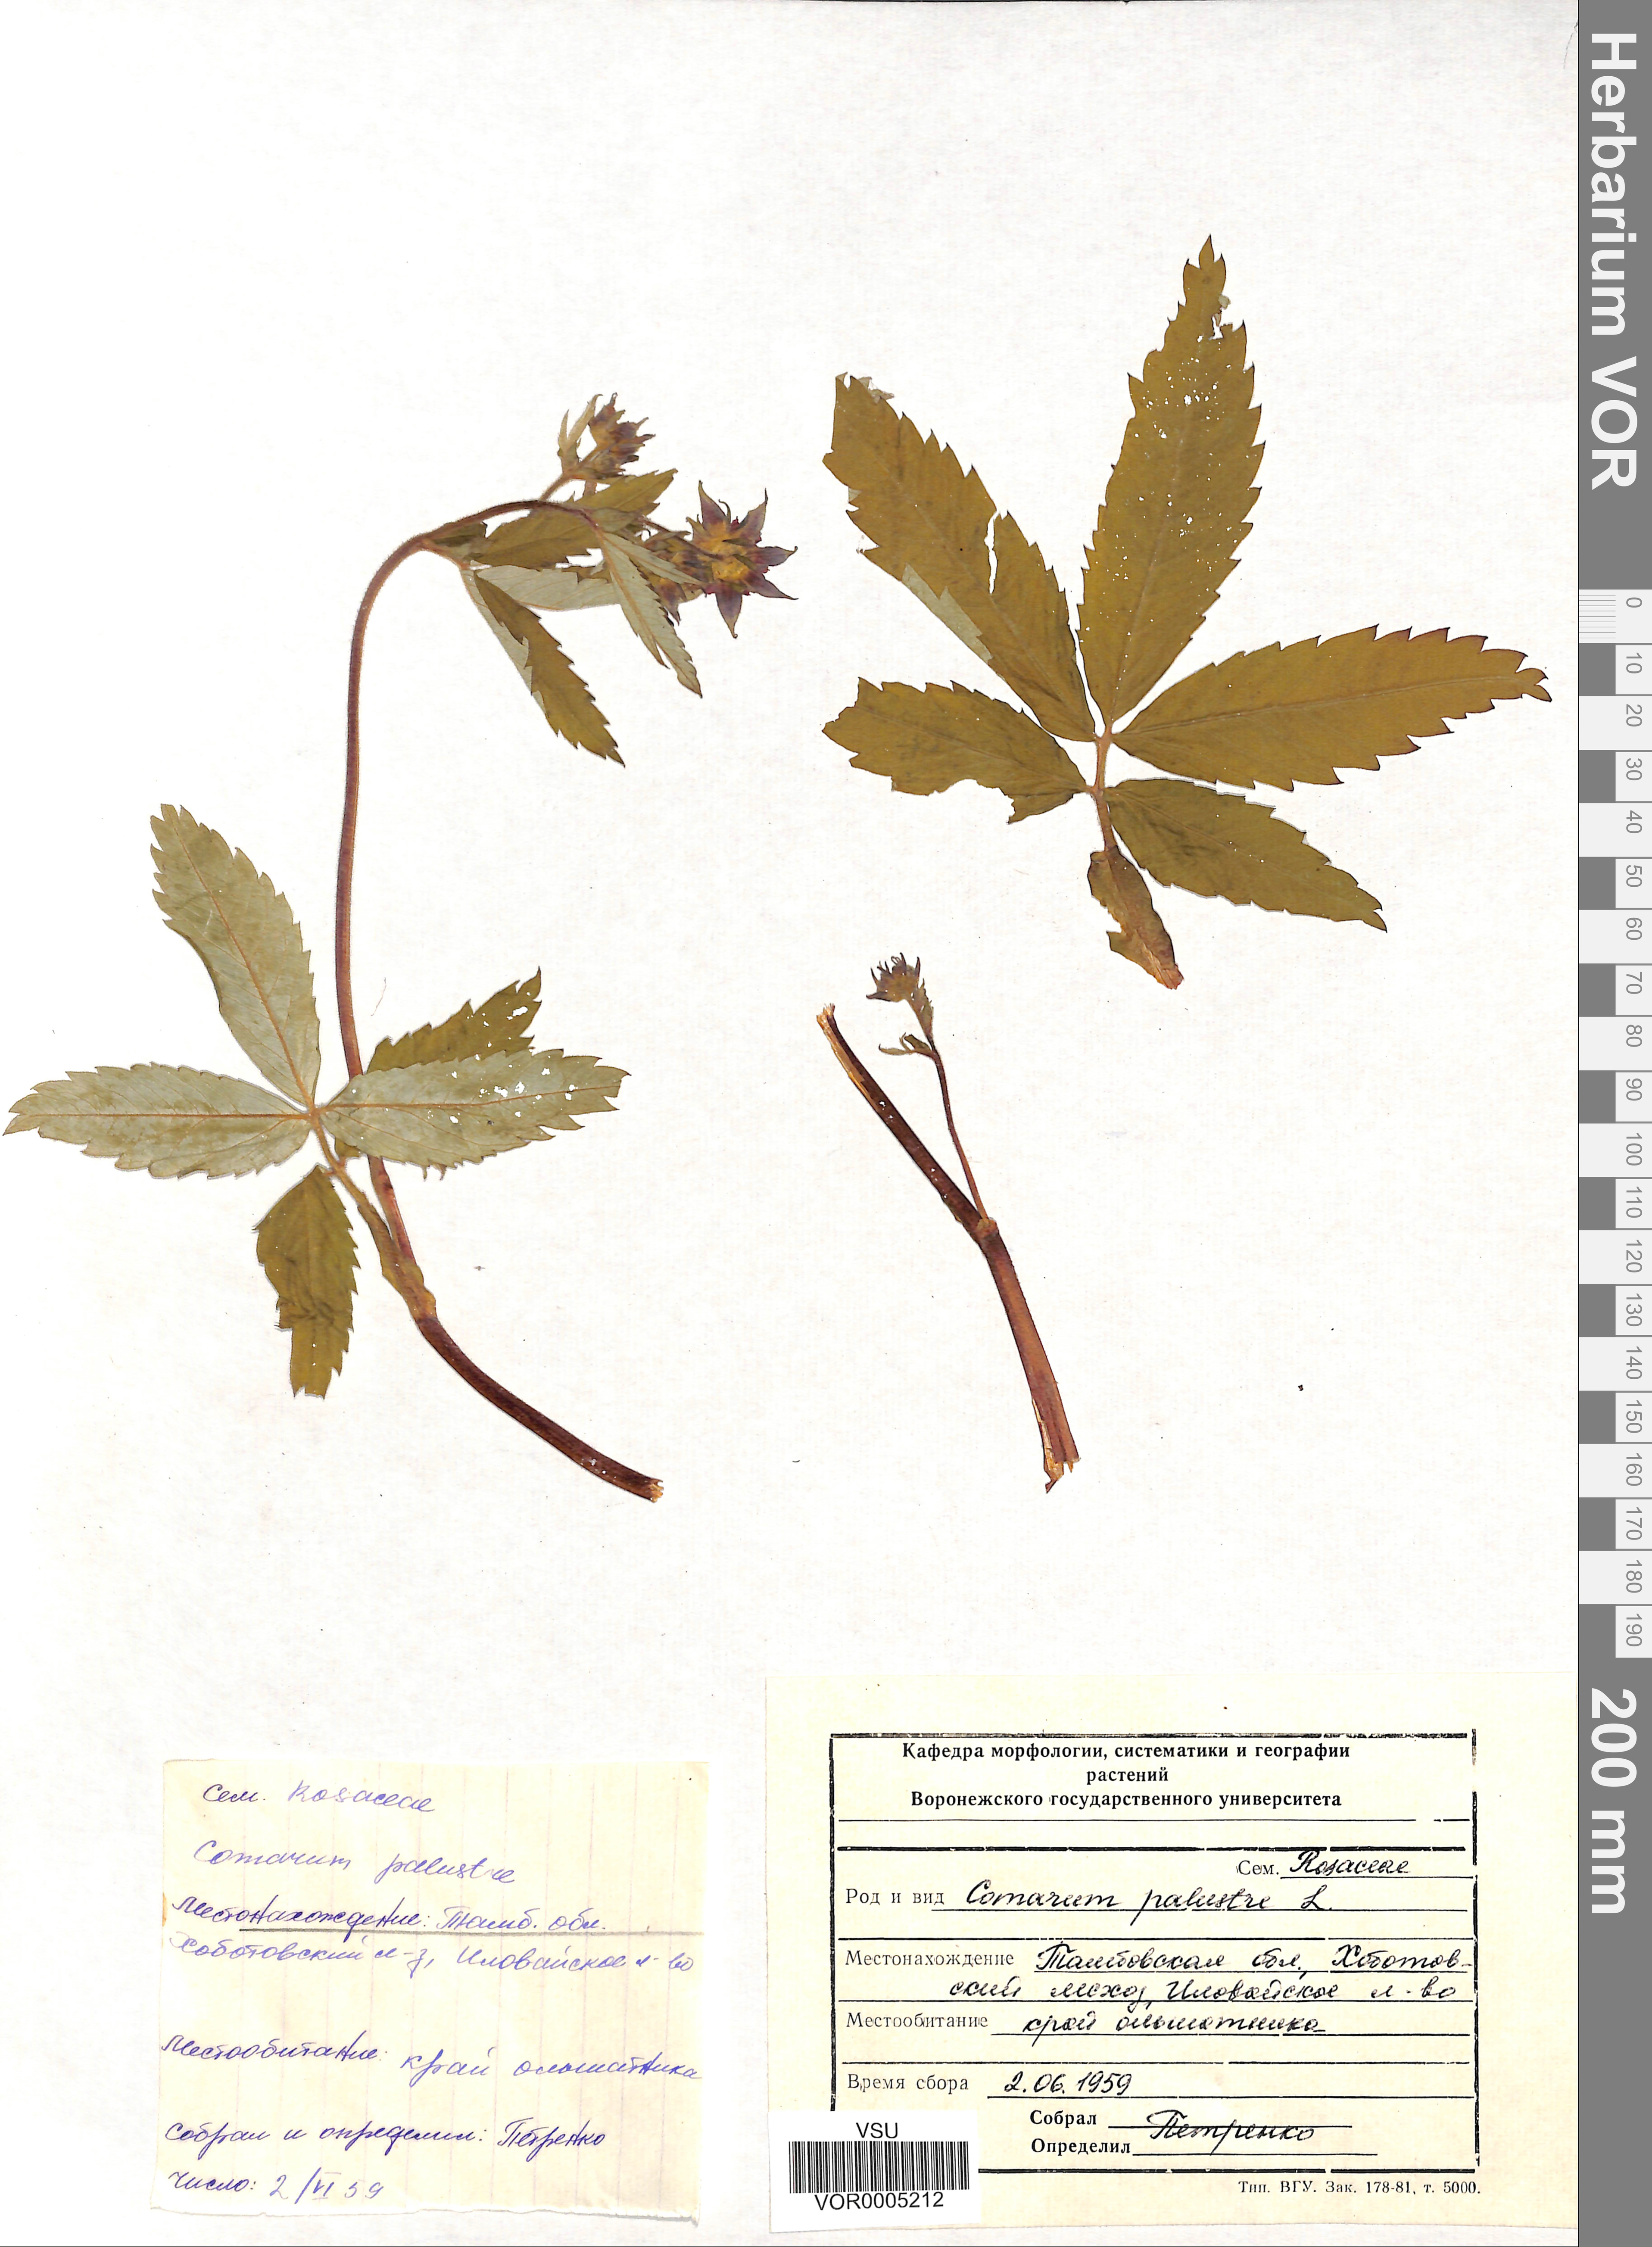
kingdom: Plantae
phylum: Tracheophyta
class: Magnoliopsida
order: Rosales
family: Rosaceae
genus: Comarum
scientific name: Comarum palustre
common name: Marsh cinquefoil
